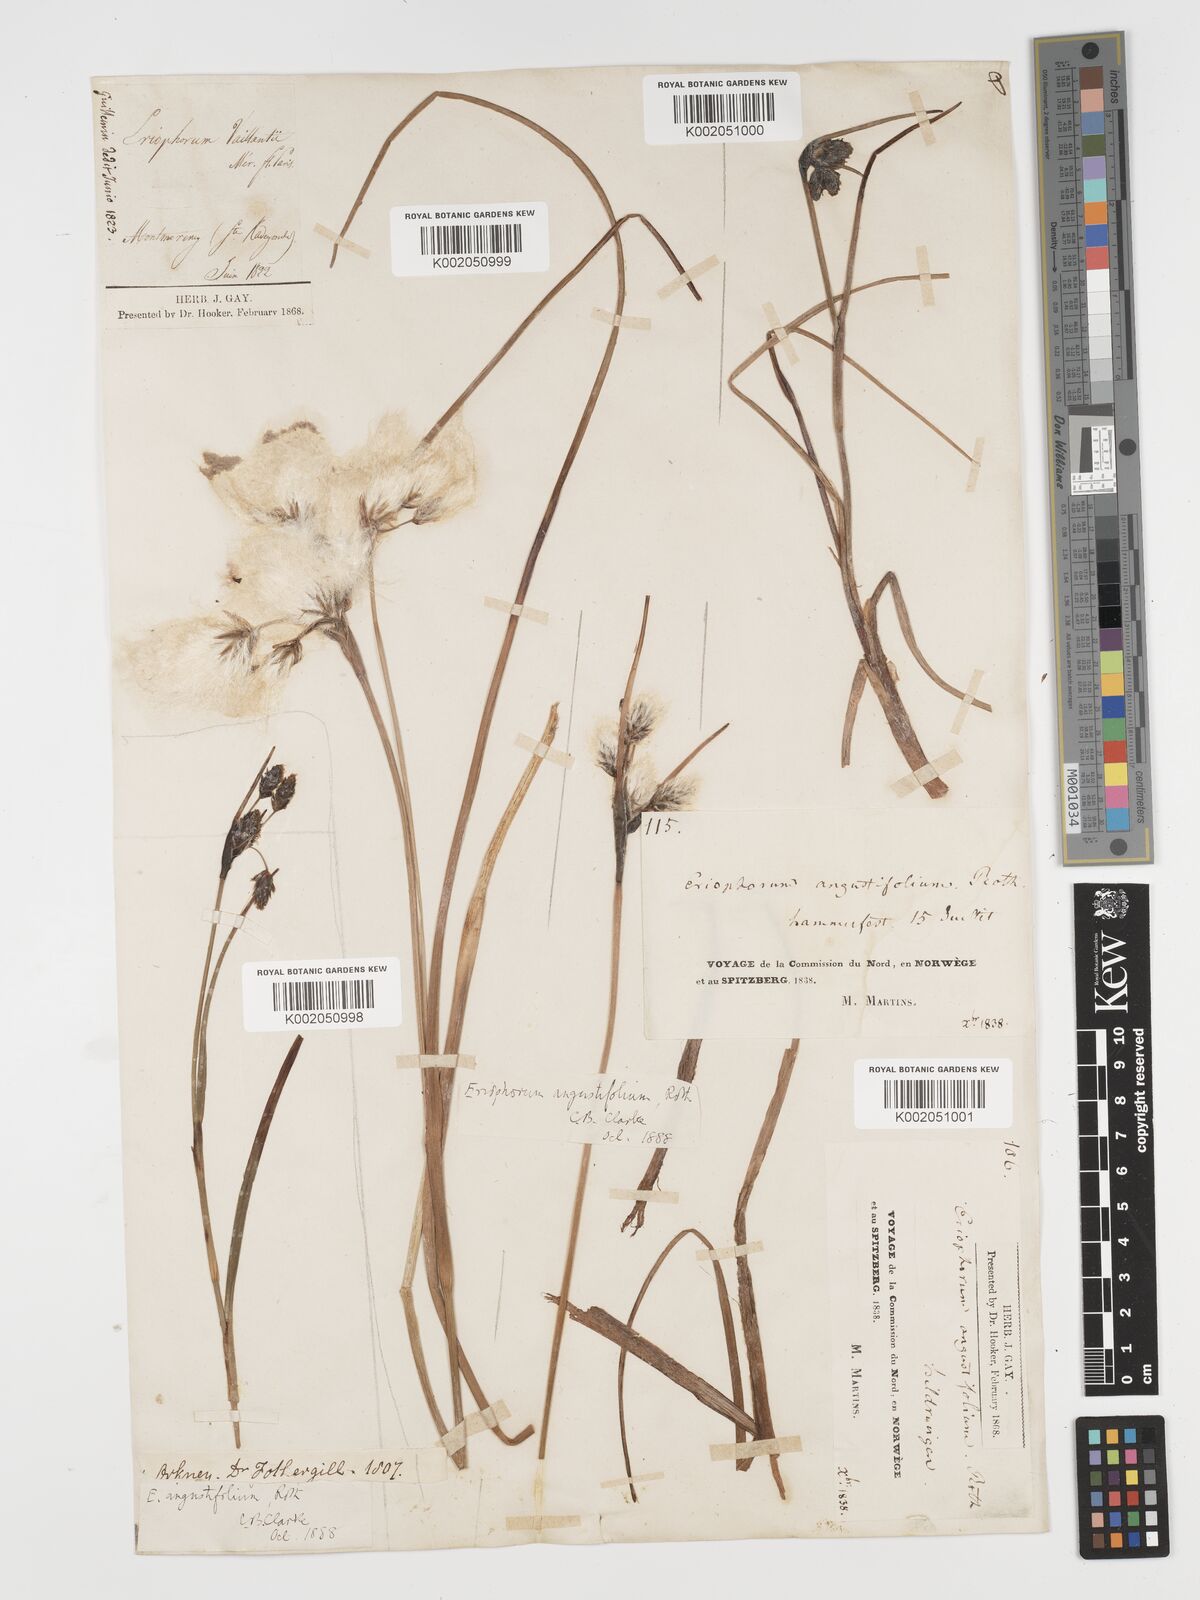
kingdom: Plantae
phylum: Tracheophyta
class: Liliopsida
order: Poales
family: Cyperaceae
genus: Eriophorum
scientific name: Eriophorum angustifolium
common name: Common cottongrass
